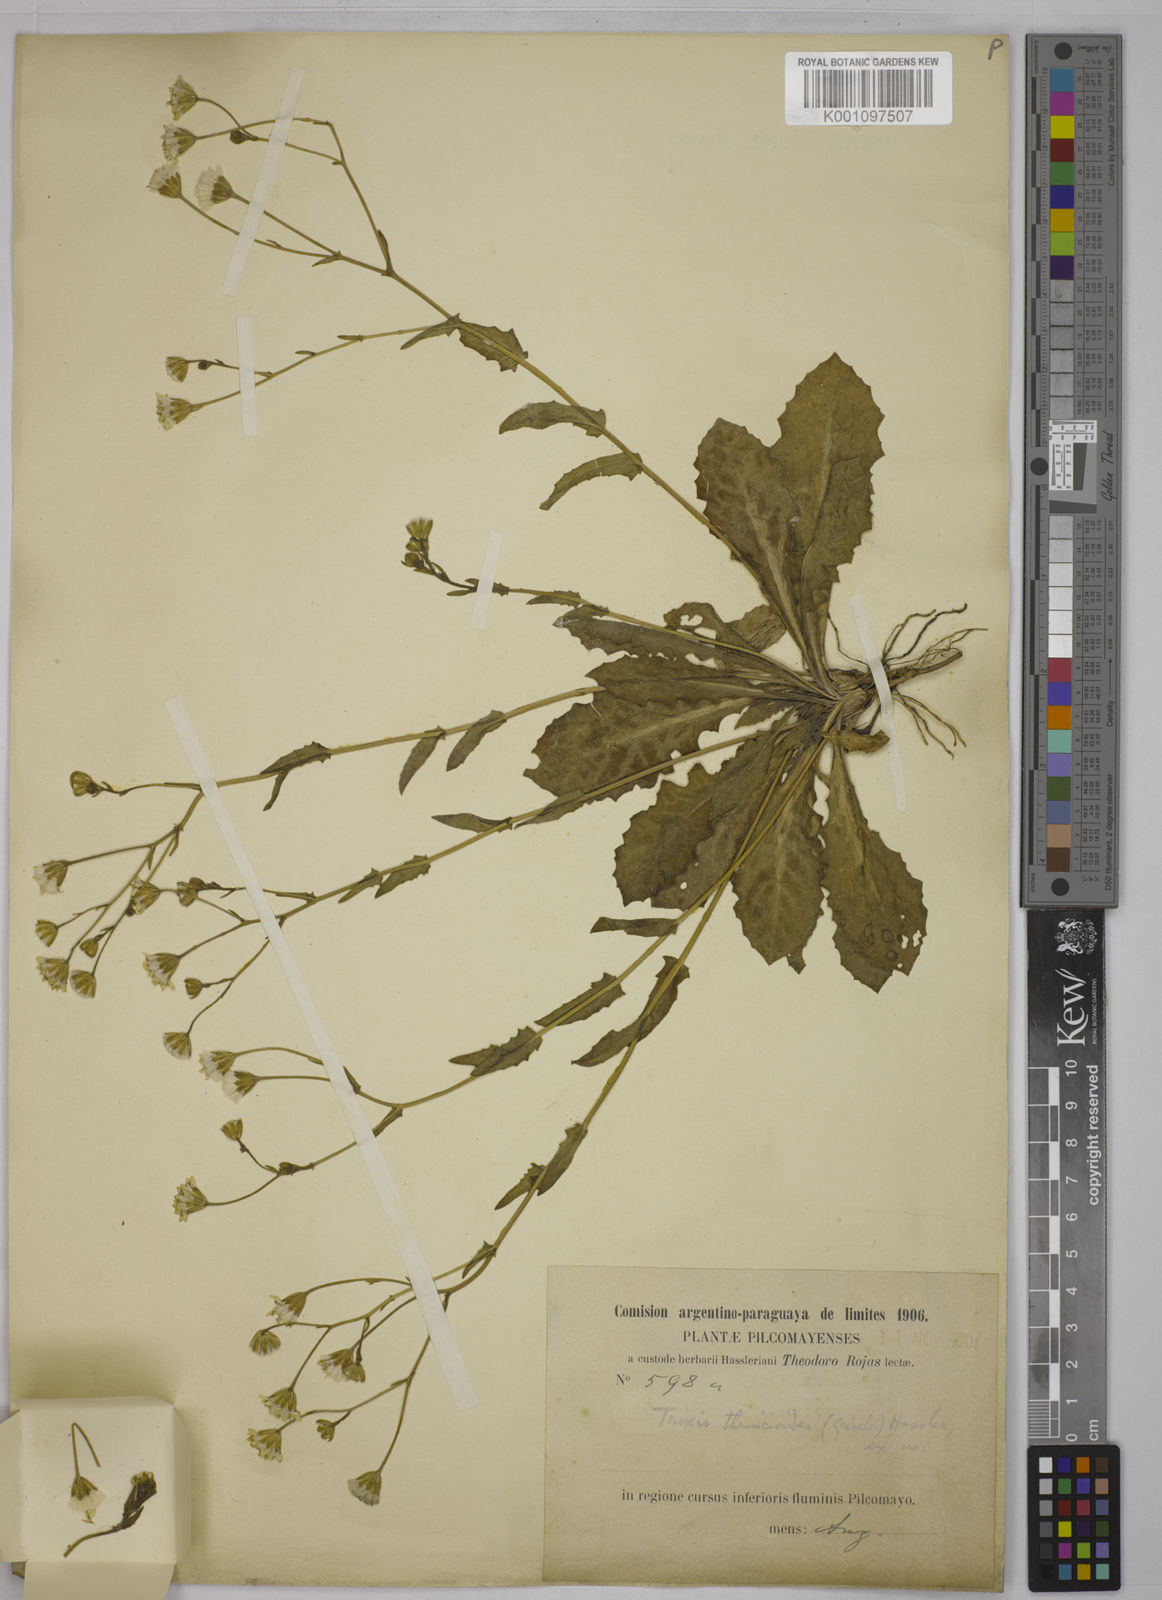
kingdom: Plantae
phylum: Tracheophyta
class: Magnoliopsida
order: Asterales
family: Asteraceae
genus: Holocheilus
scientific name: Holocheilus hieracioides
